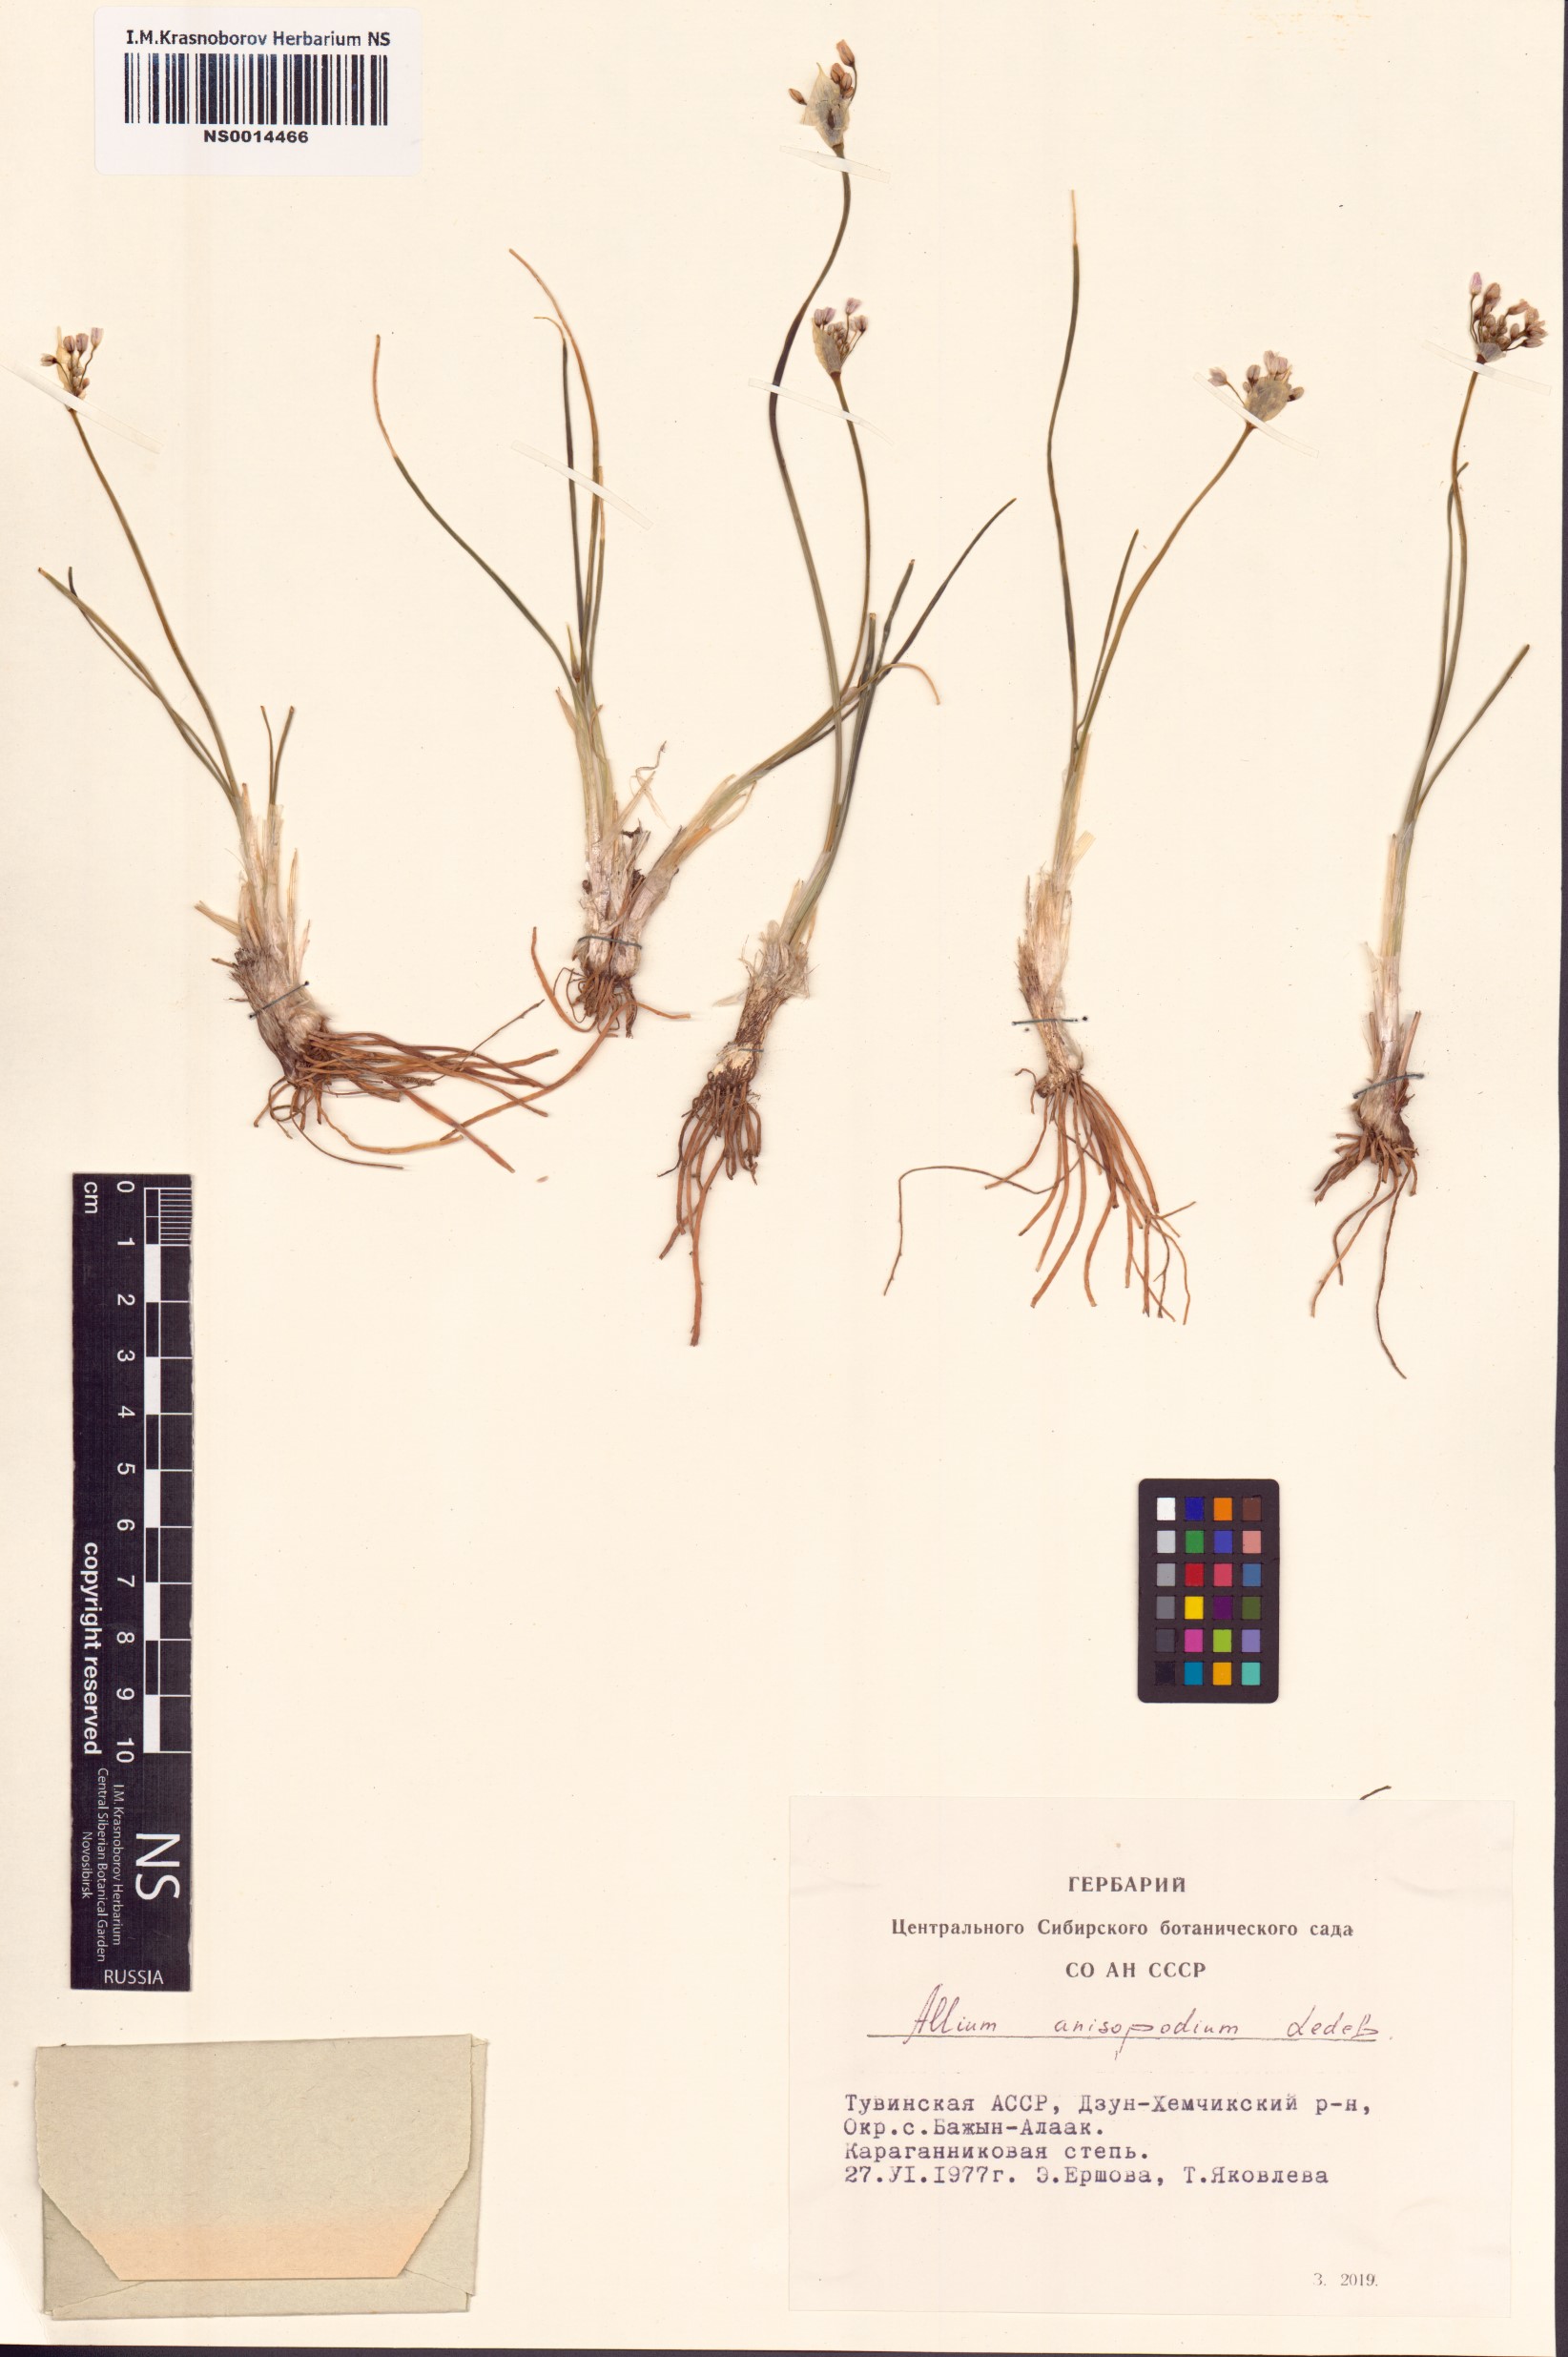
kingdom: Plantae
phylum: Tracheophyta
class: Liliopsida
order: Asparagales
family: Amaryllidaceae
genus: Allium
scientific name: Allium anisopodium
